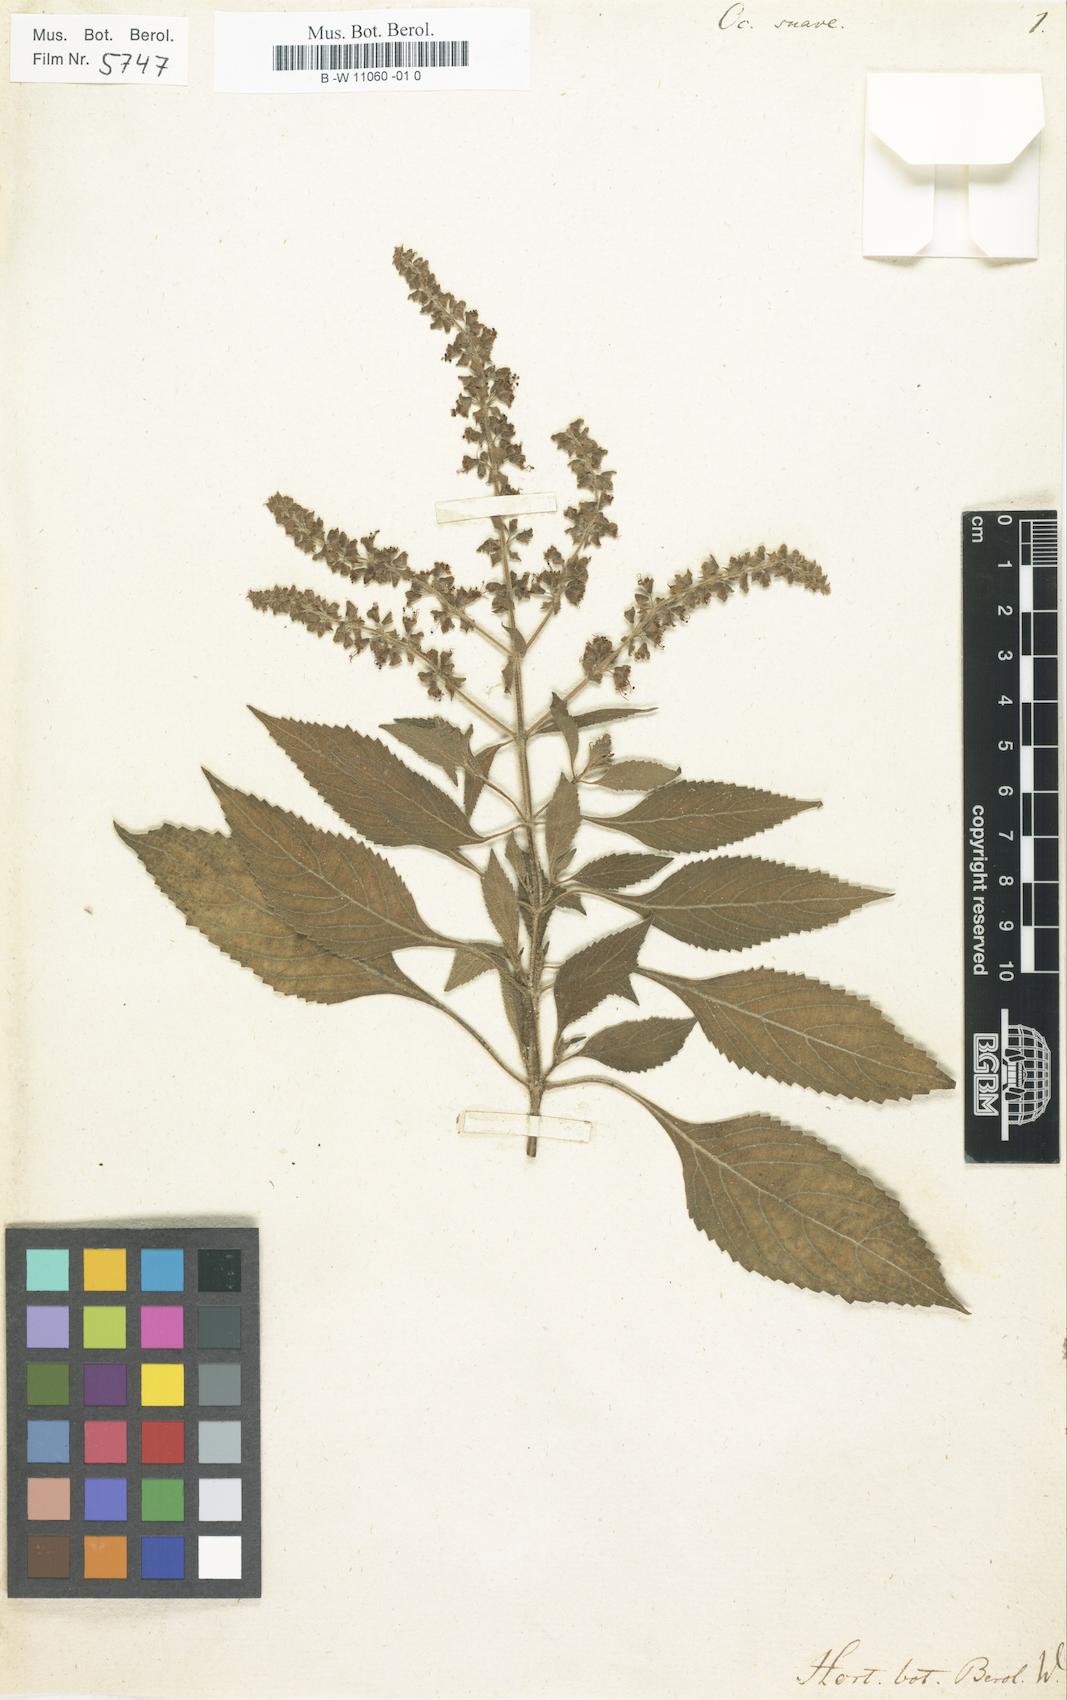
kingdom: Plantae
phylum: Tracheophyta
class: Magnoliopsida
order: Lamiales
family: Lamiaceae
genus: Ocimum
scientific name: Ocimum gratissimum
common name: African basil
